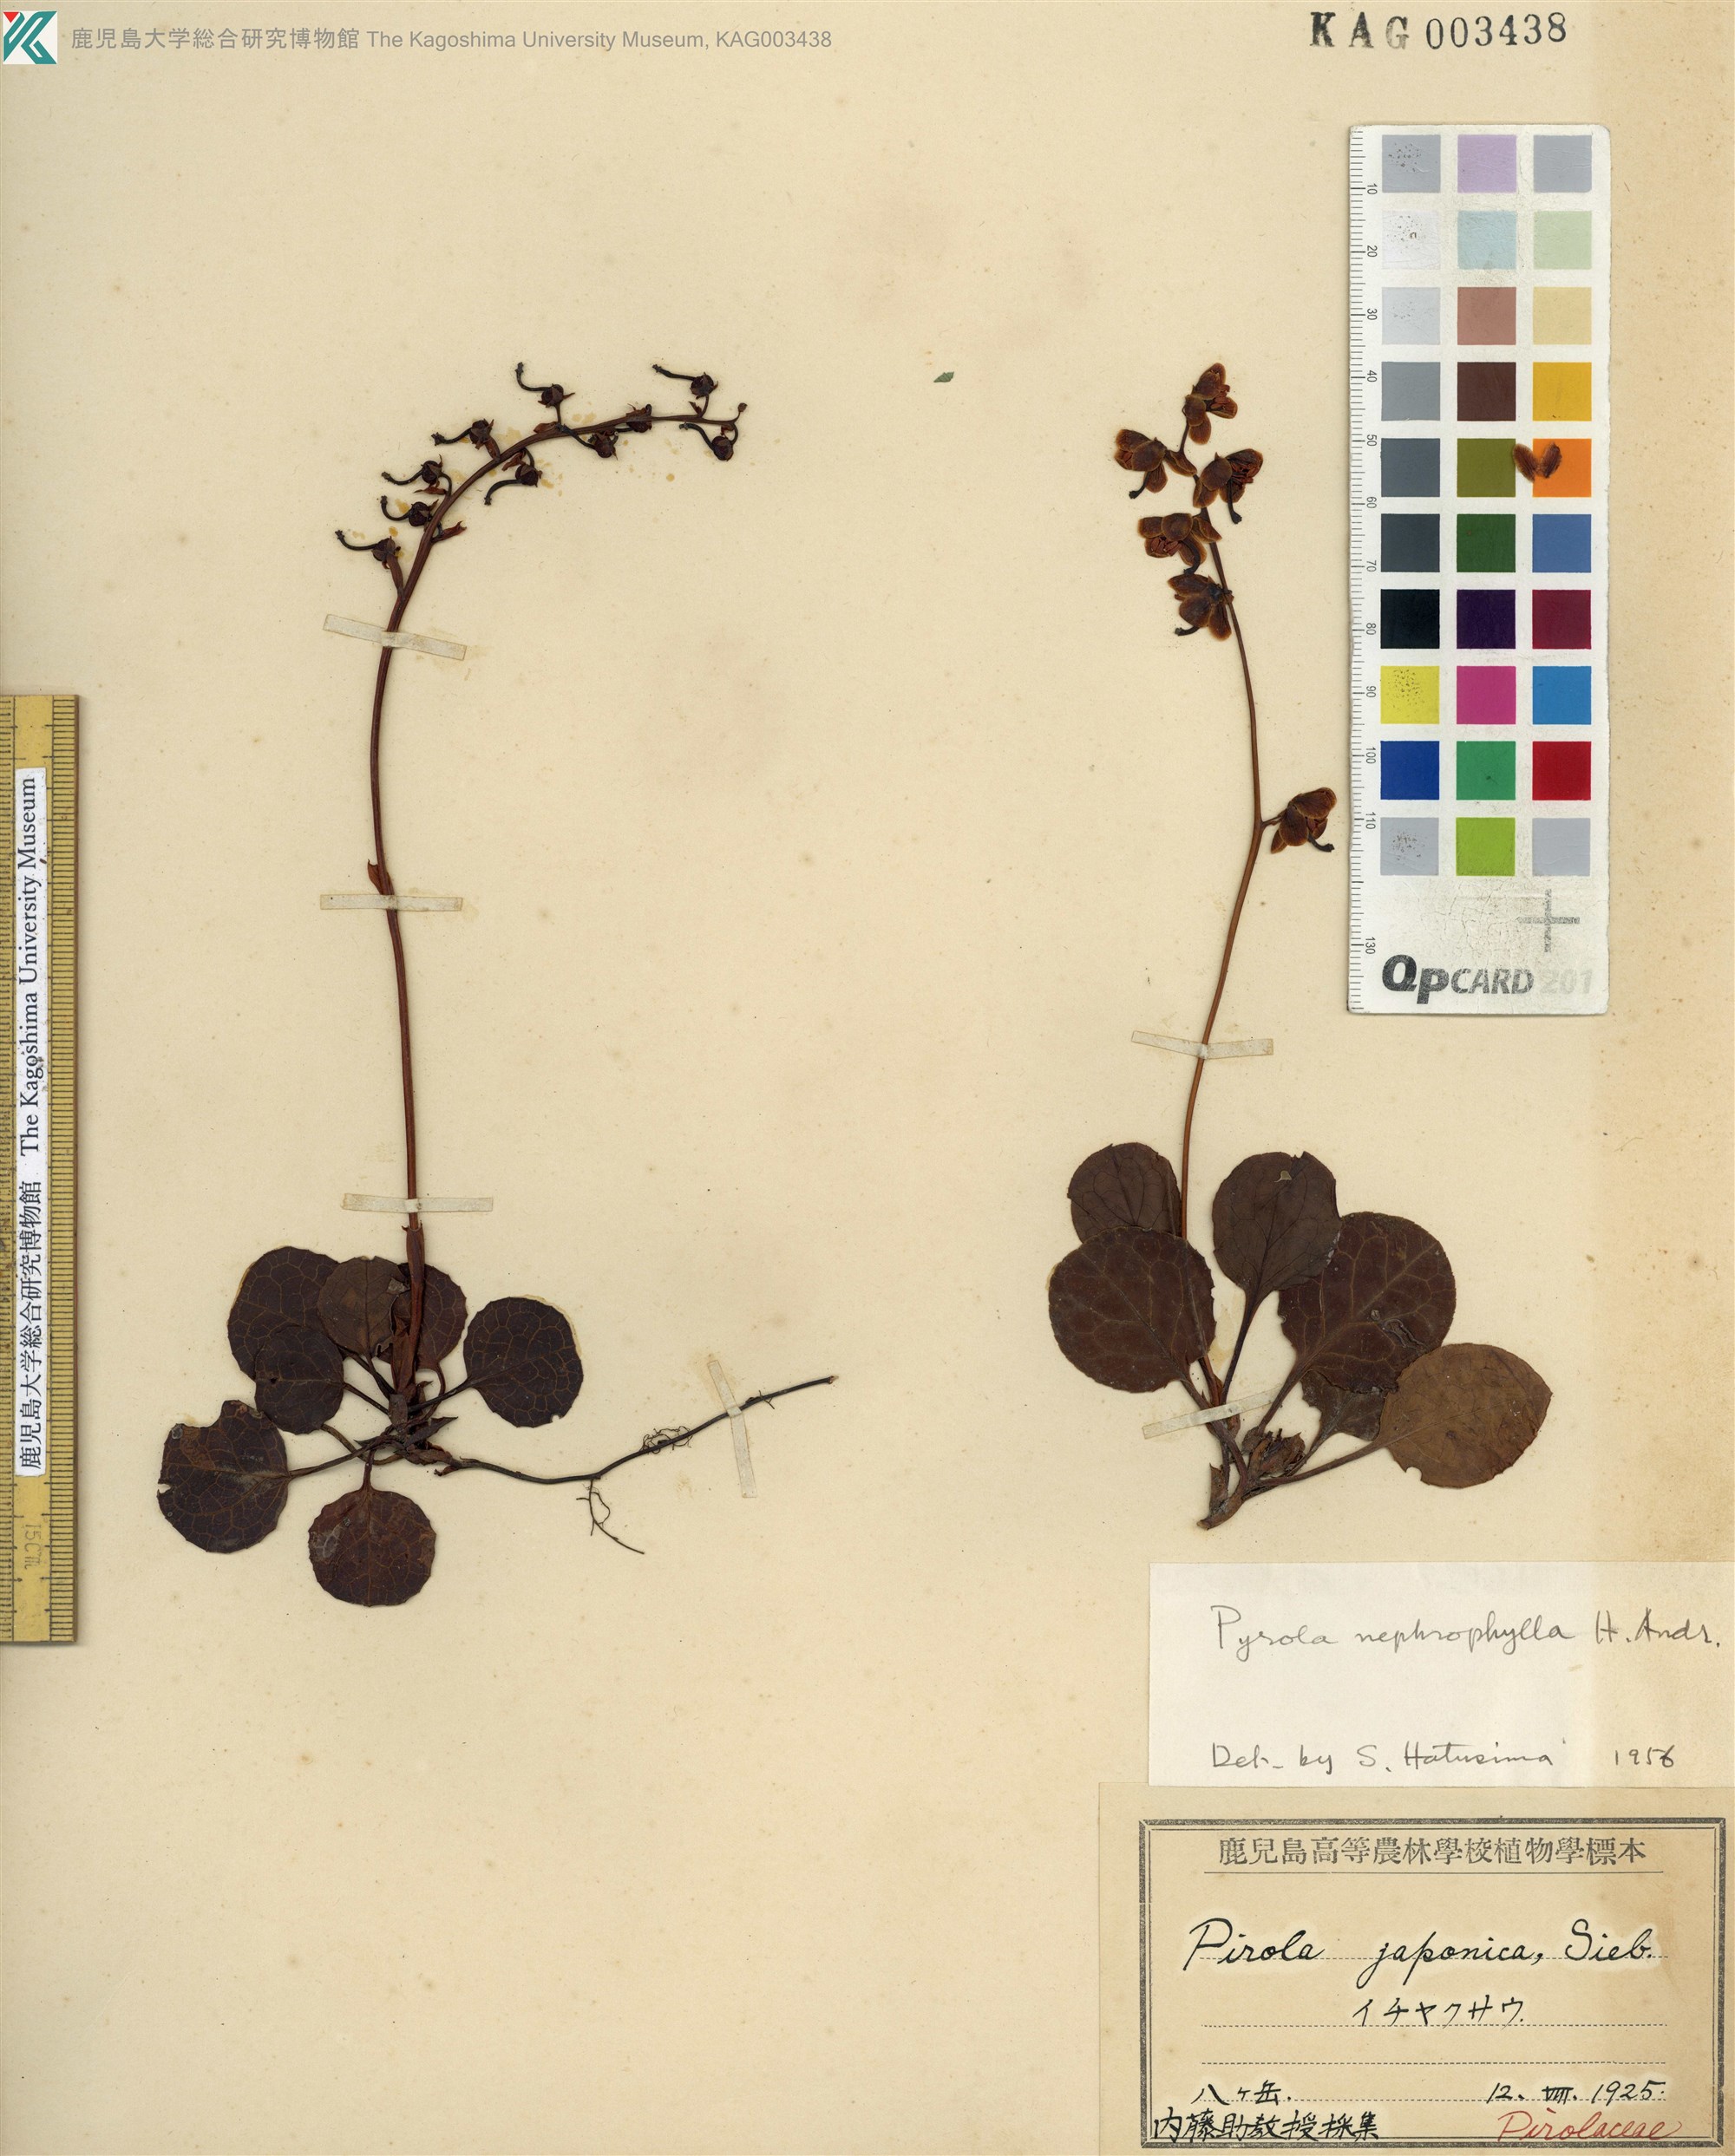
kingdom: Plantae
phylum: Tracheophyta
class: Magnoliopsida
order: Ericales
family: Ericaceae
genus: Pyrola
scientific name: Pyrola nephrophylla
